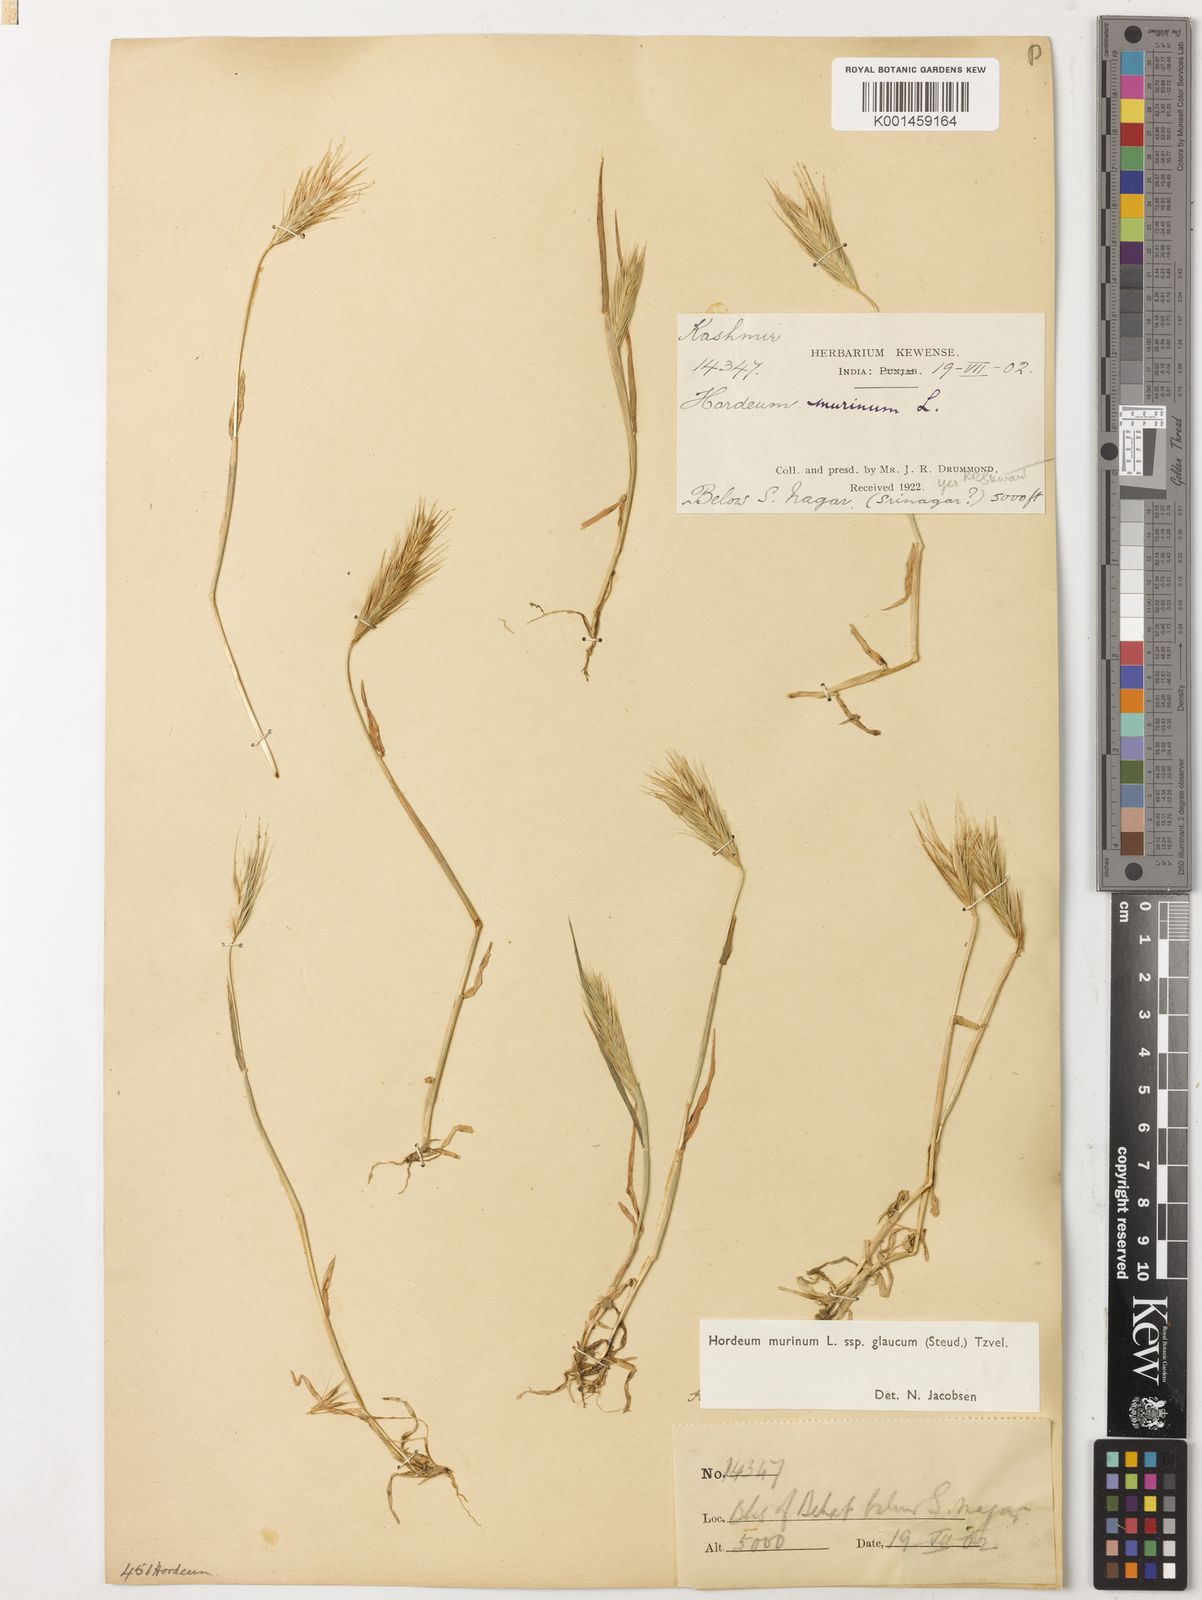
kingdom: Plantae
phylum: Tracheophyta
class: Liliopsida
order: Poales
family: Poaceae
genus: Hordeum
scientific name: Hordeum murinum
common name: Wall barley
